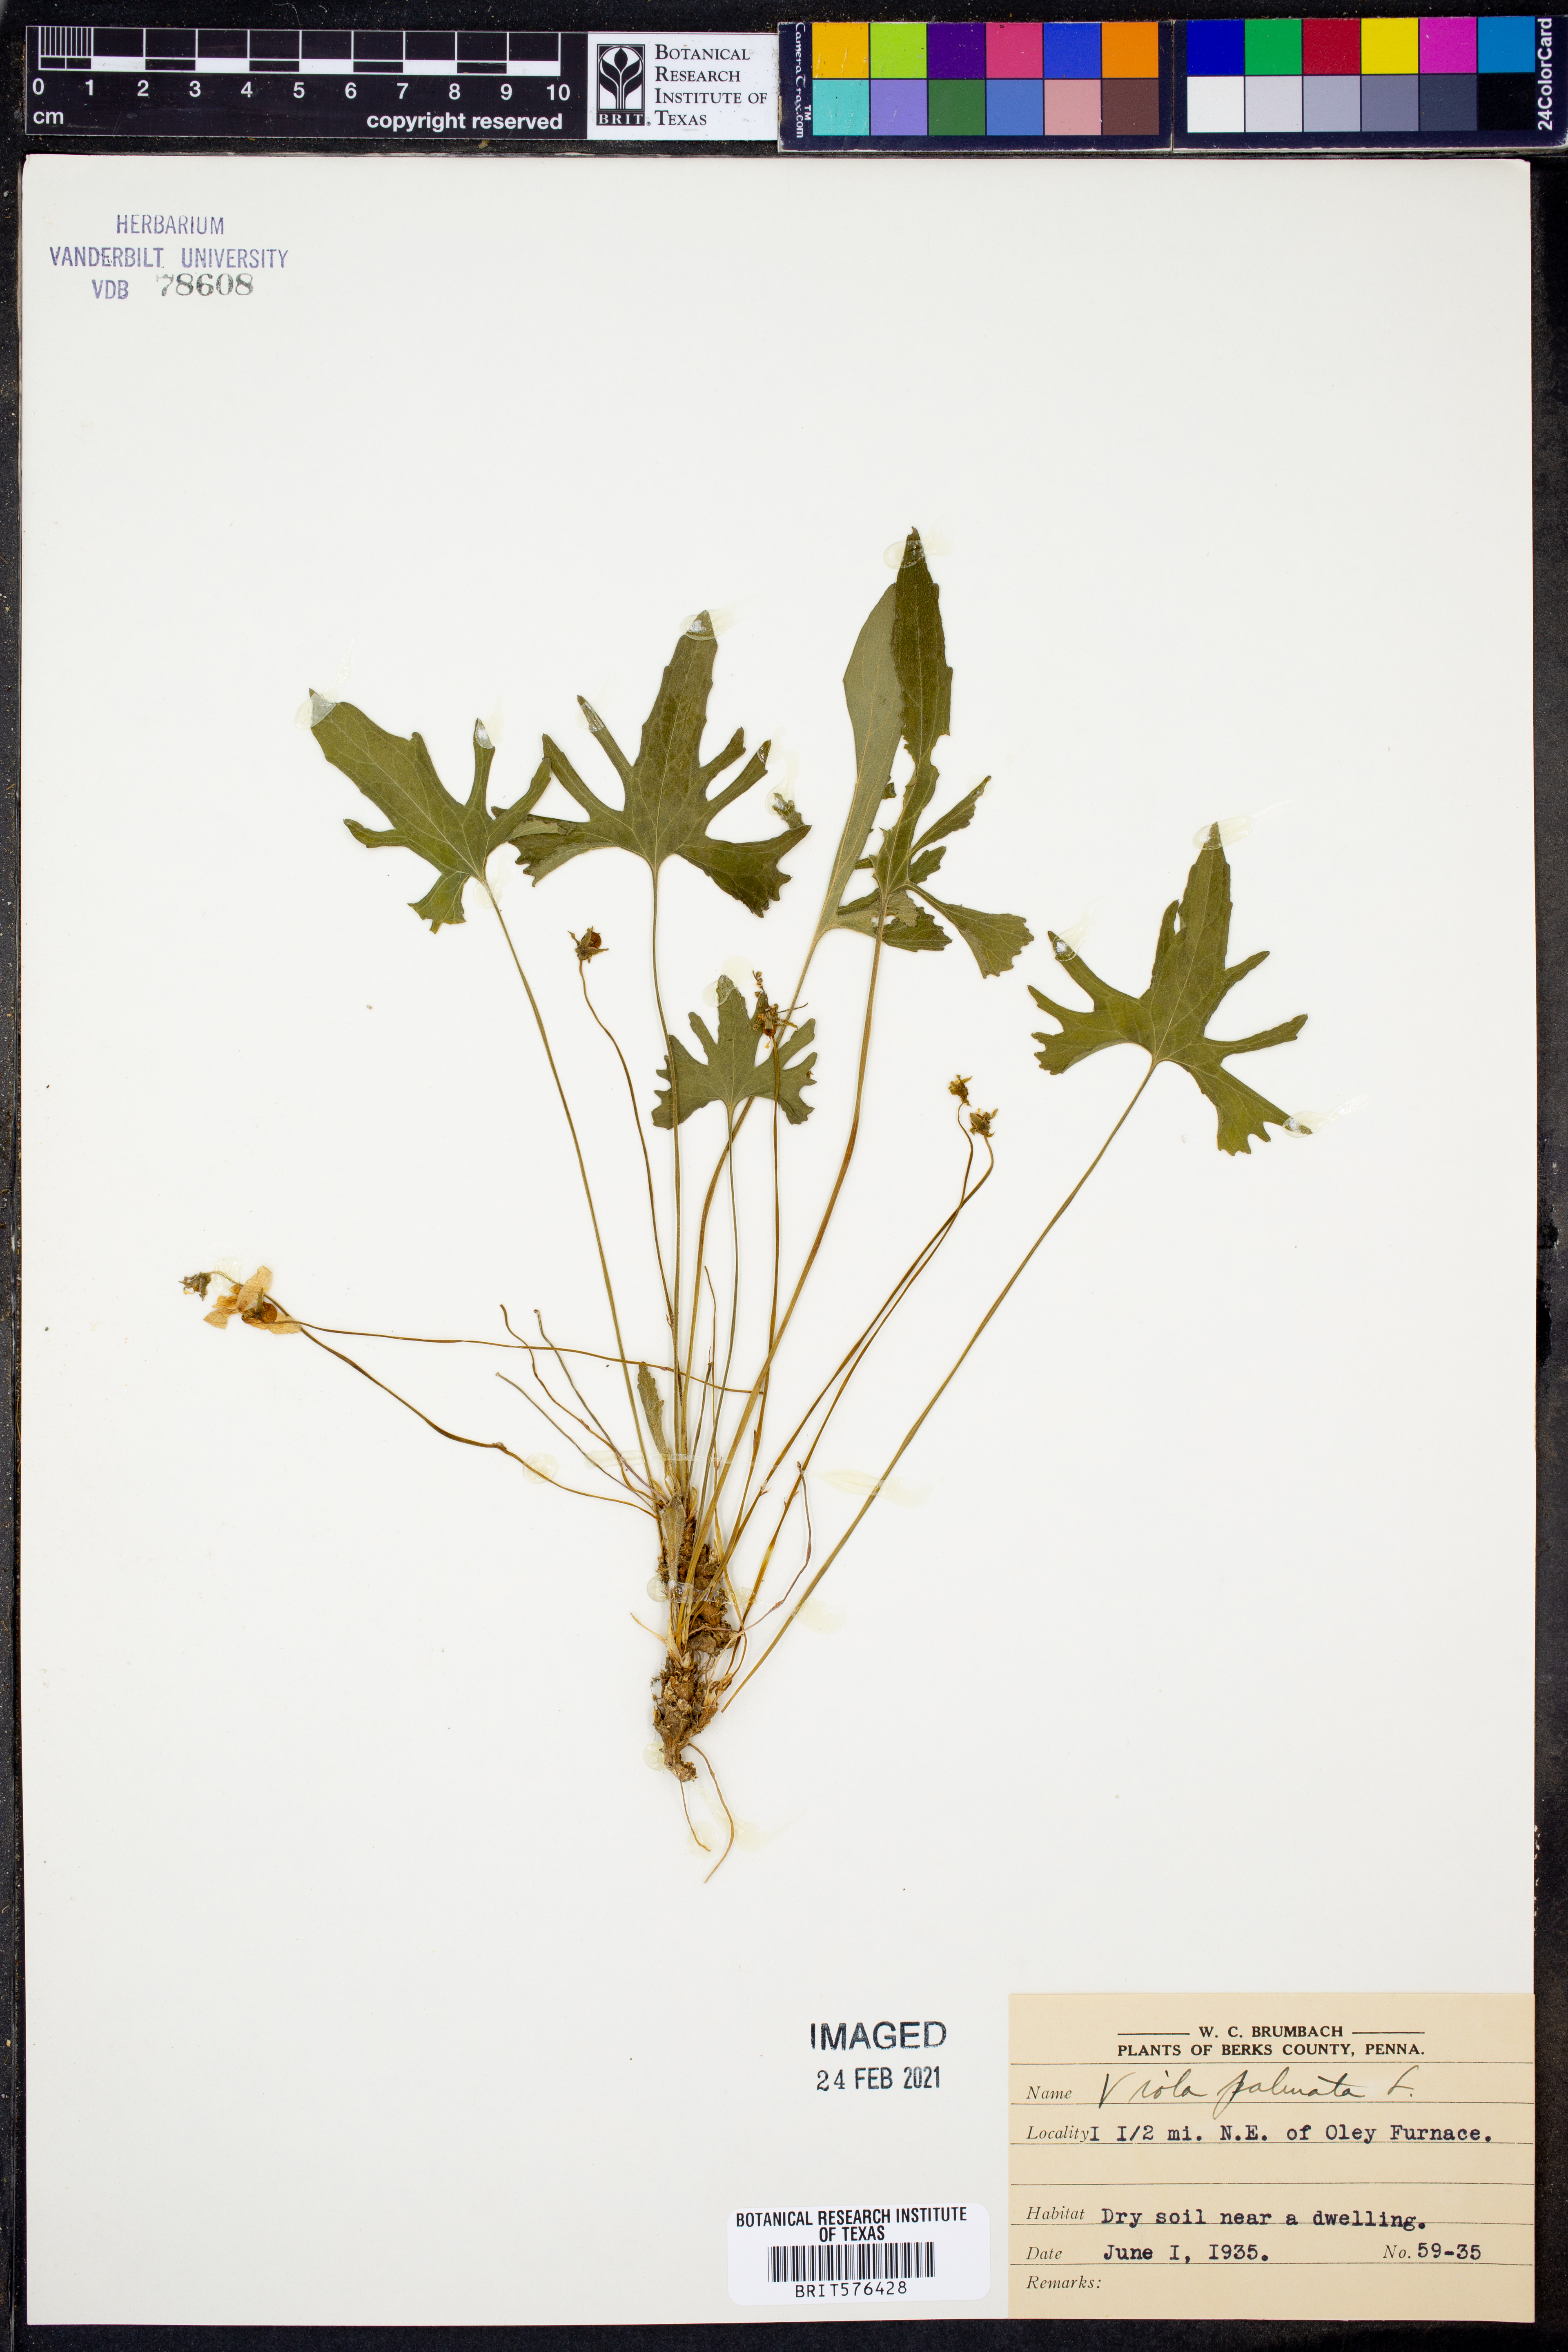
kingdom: Plantae
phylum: Tracheophyta
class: Magnoliopsida
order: Malpighiales
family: Violaceae
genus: Viola
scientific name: Viola palmata
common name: Early blue violet
